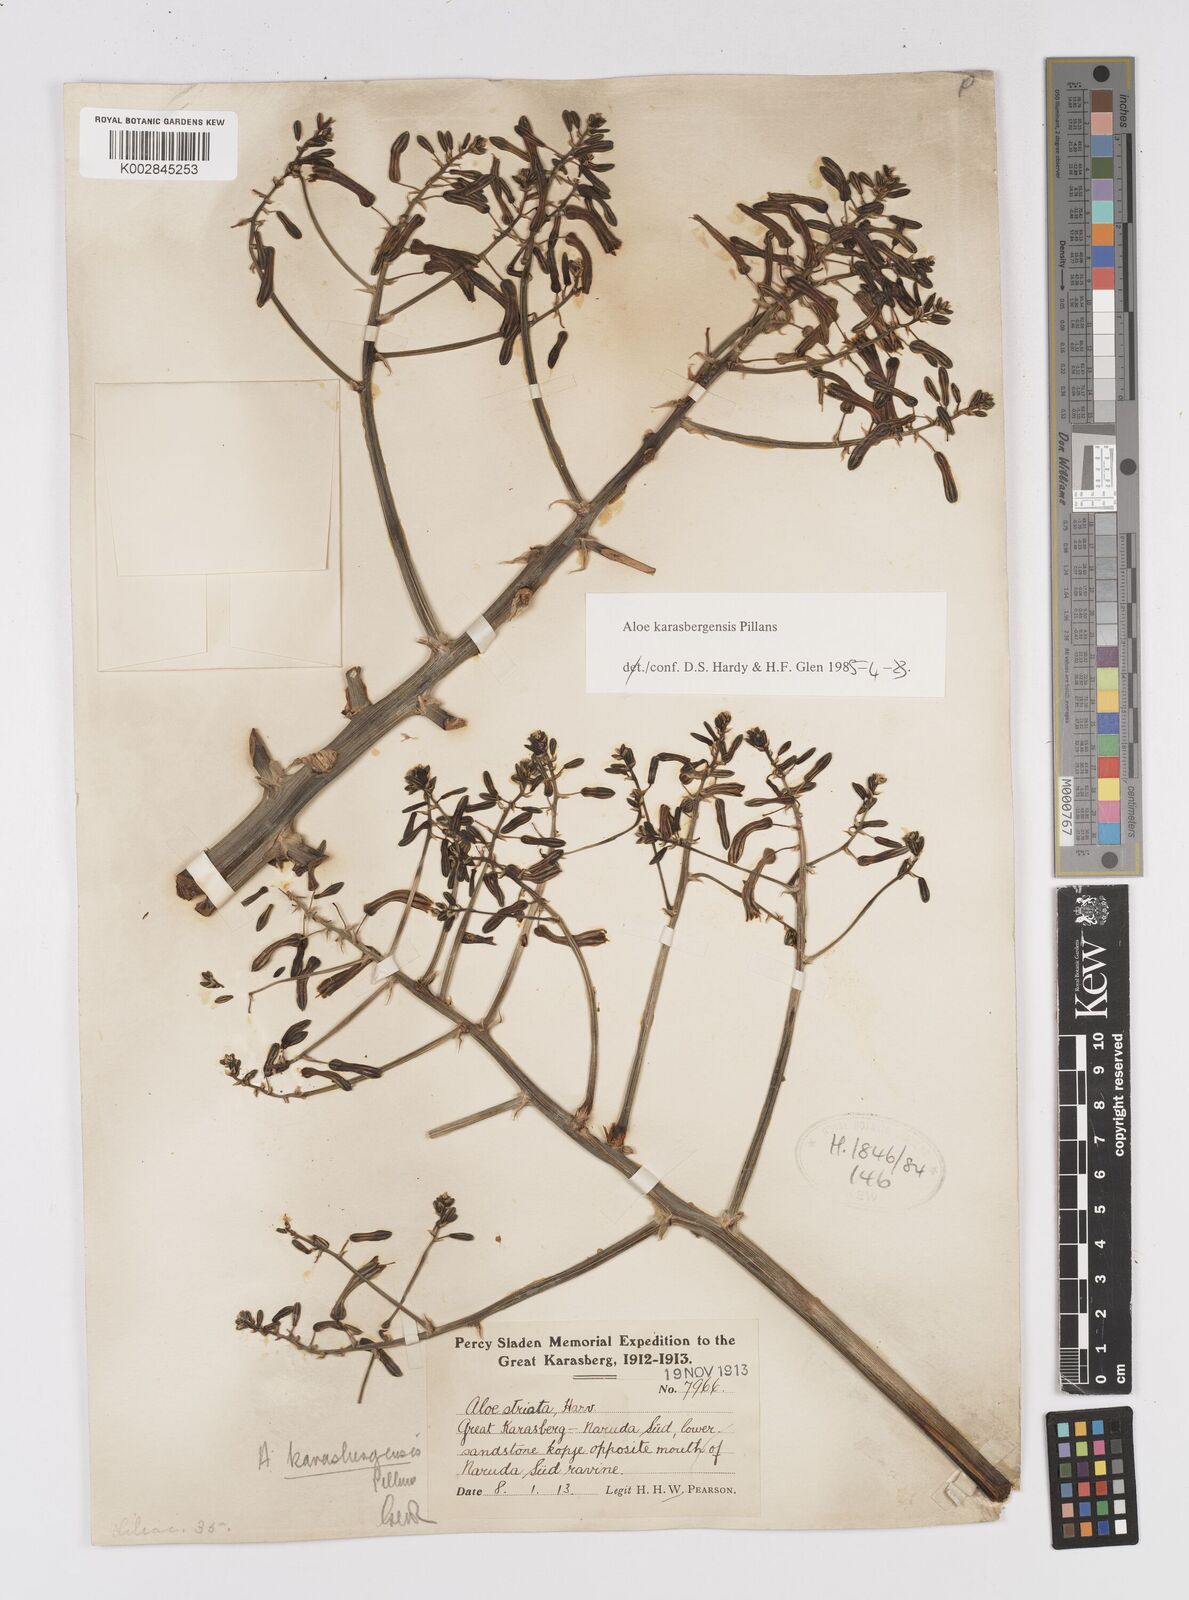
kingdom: Plantae
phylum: Tracheophyta
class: Liliopsida
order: Asparagales
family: Asphodelaceae
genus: Aloe
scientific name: Aloe karasbergensis
